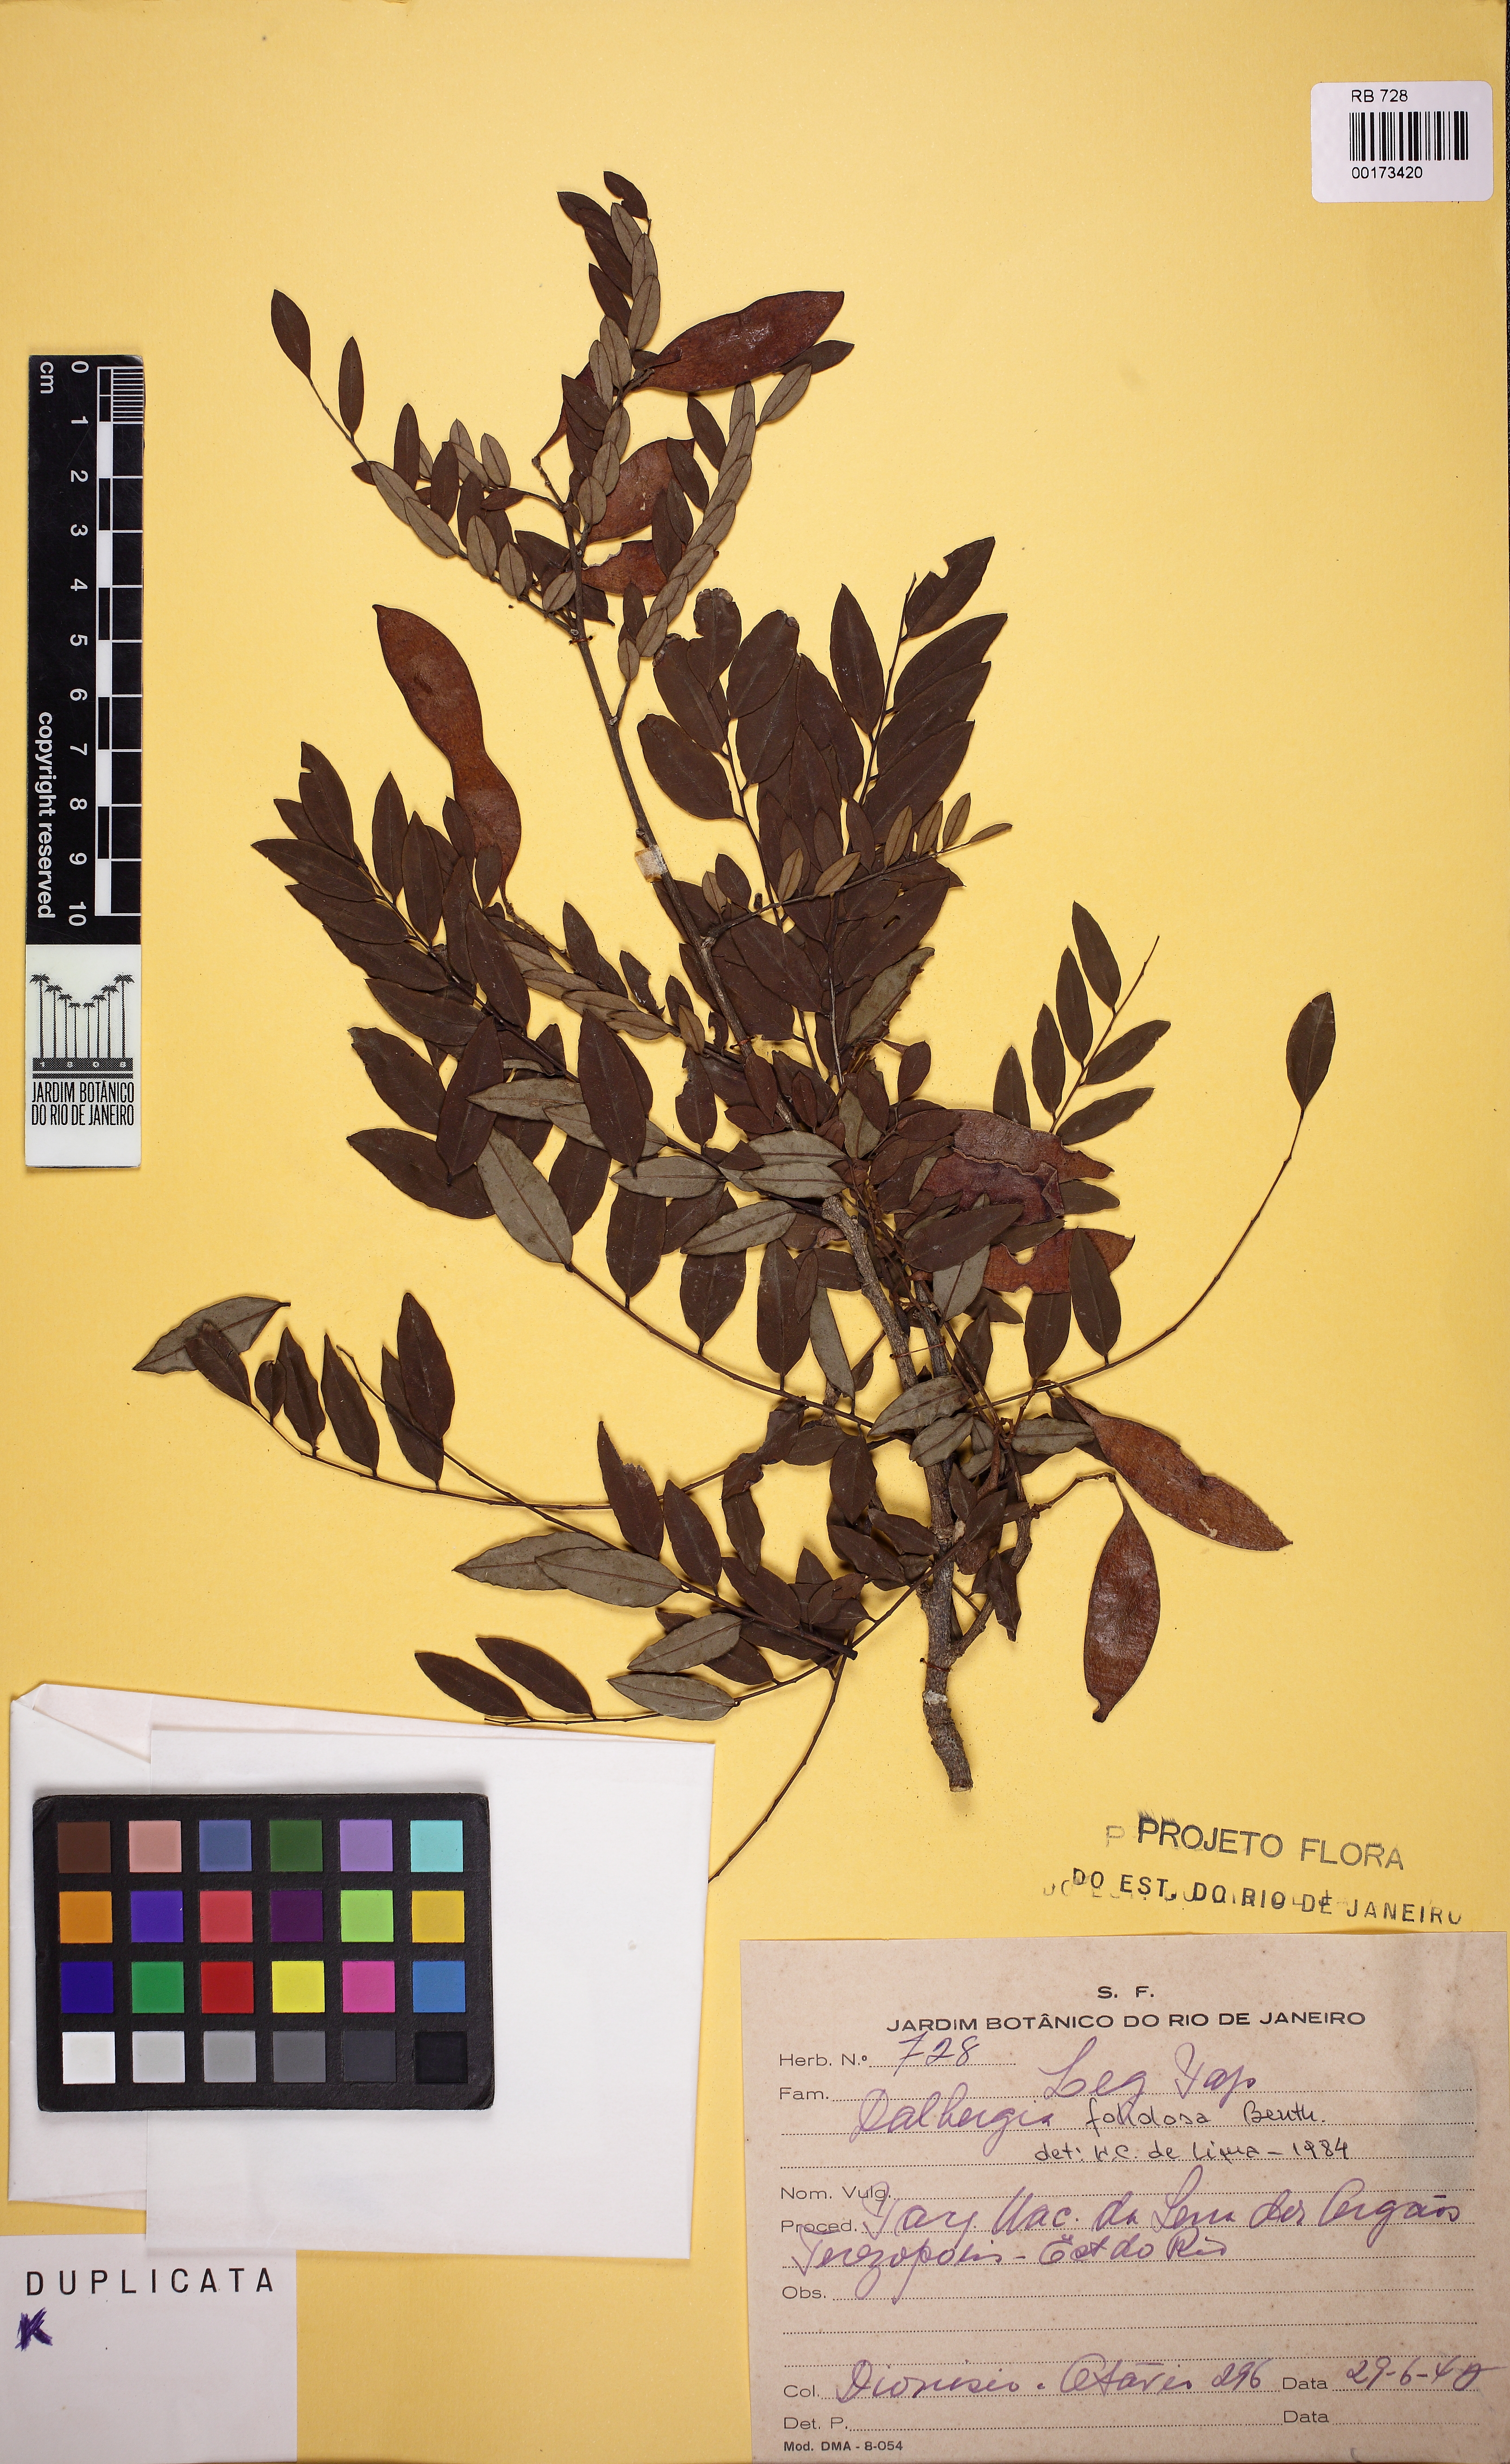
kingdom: Plantae
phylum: Tracheophyta
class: Magnoliopsida
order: Fabales
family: Fabaceae
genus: Dalbergia
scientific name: Dalbergia foliolosa
